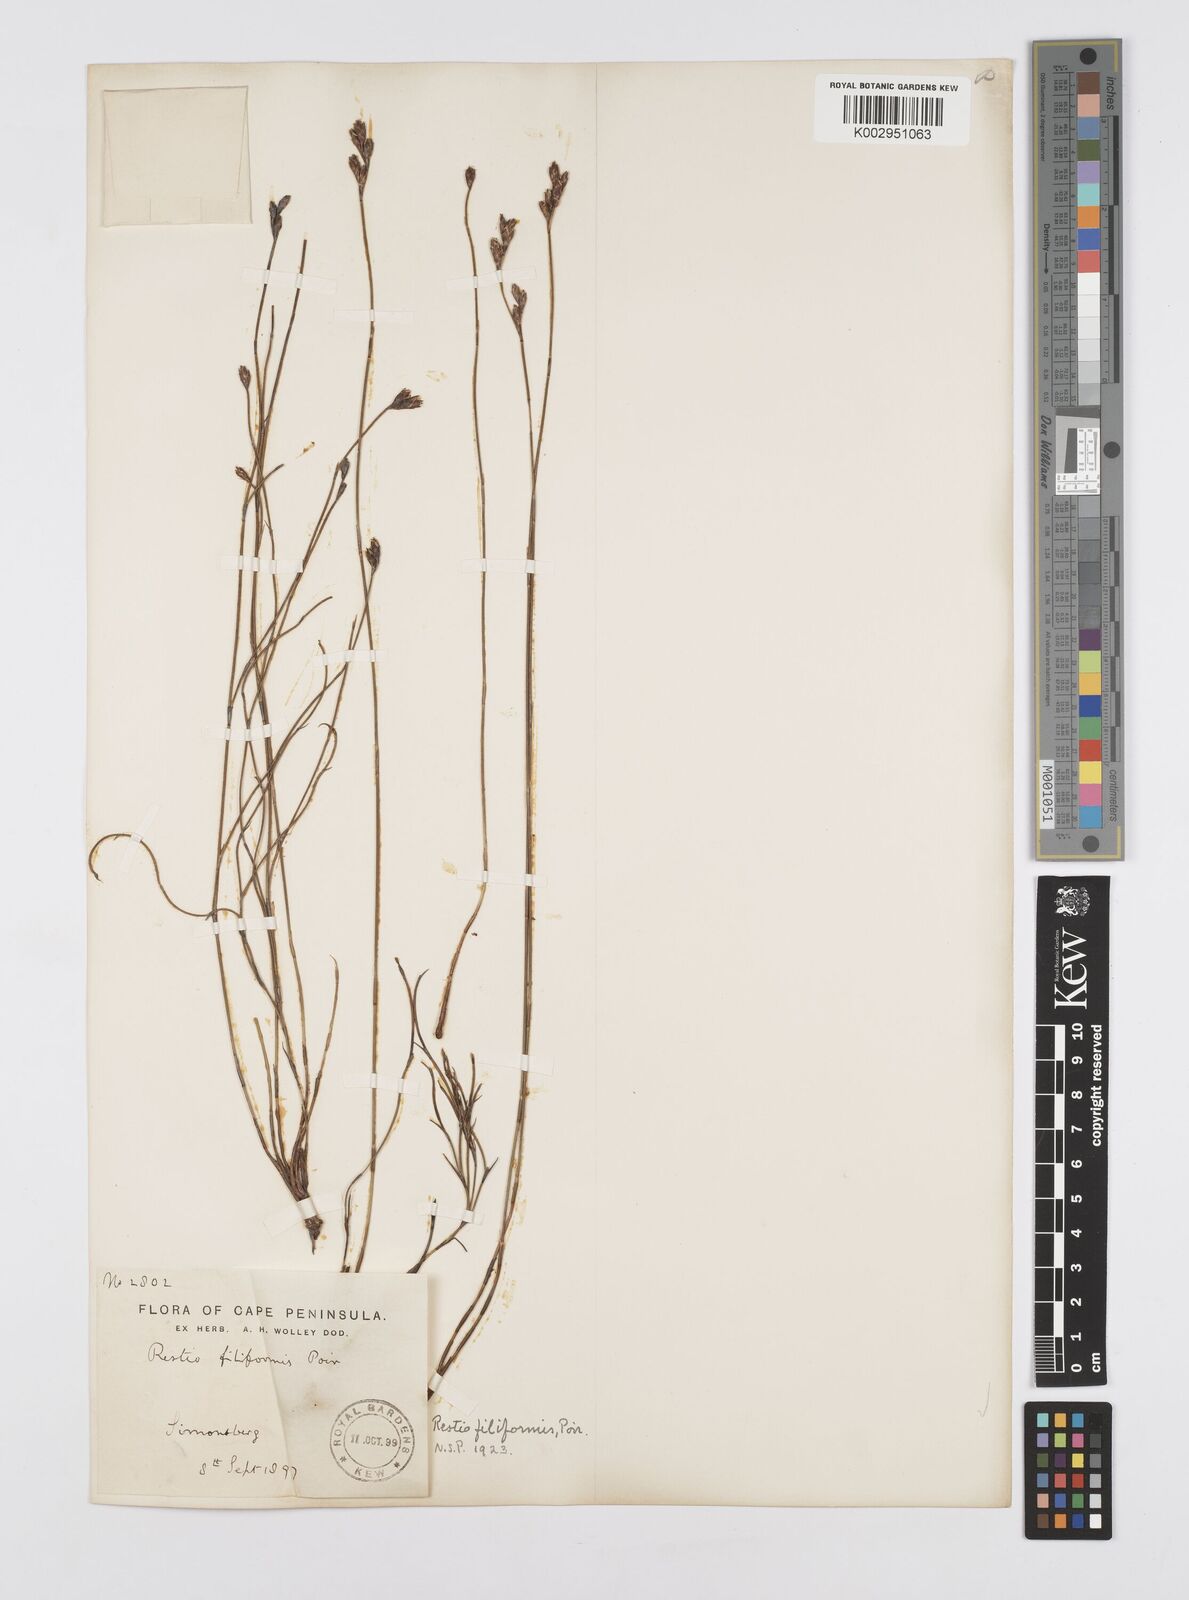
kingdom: Plantae
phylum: Tracheophyta
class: Liliopsida
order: Poales
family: Restionaceae
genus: Restio
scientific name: Restio filiformis
